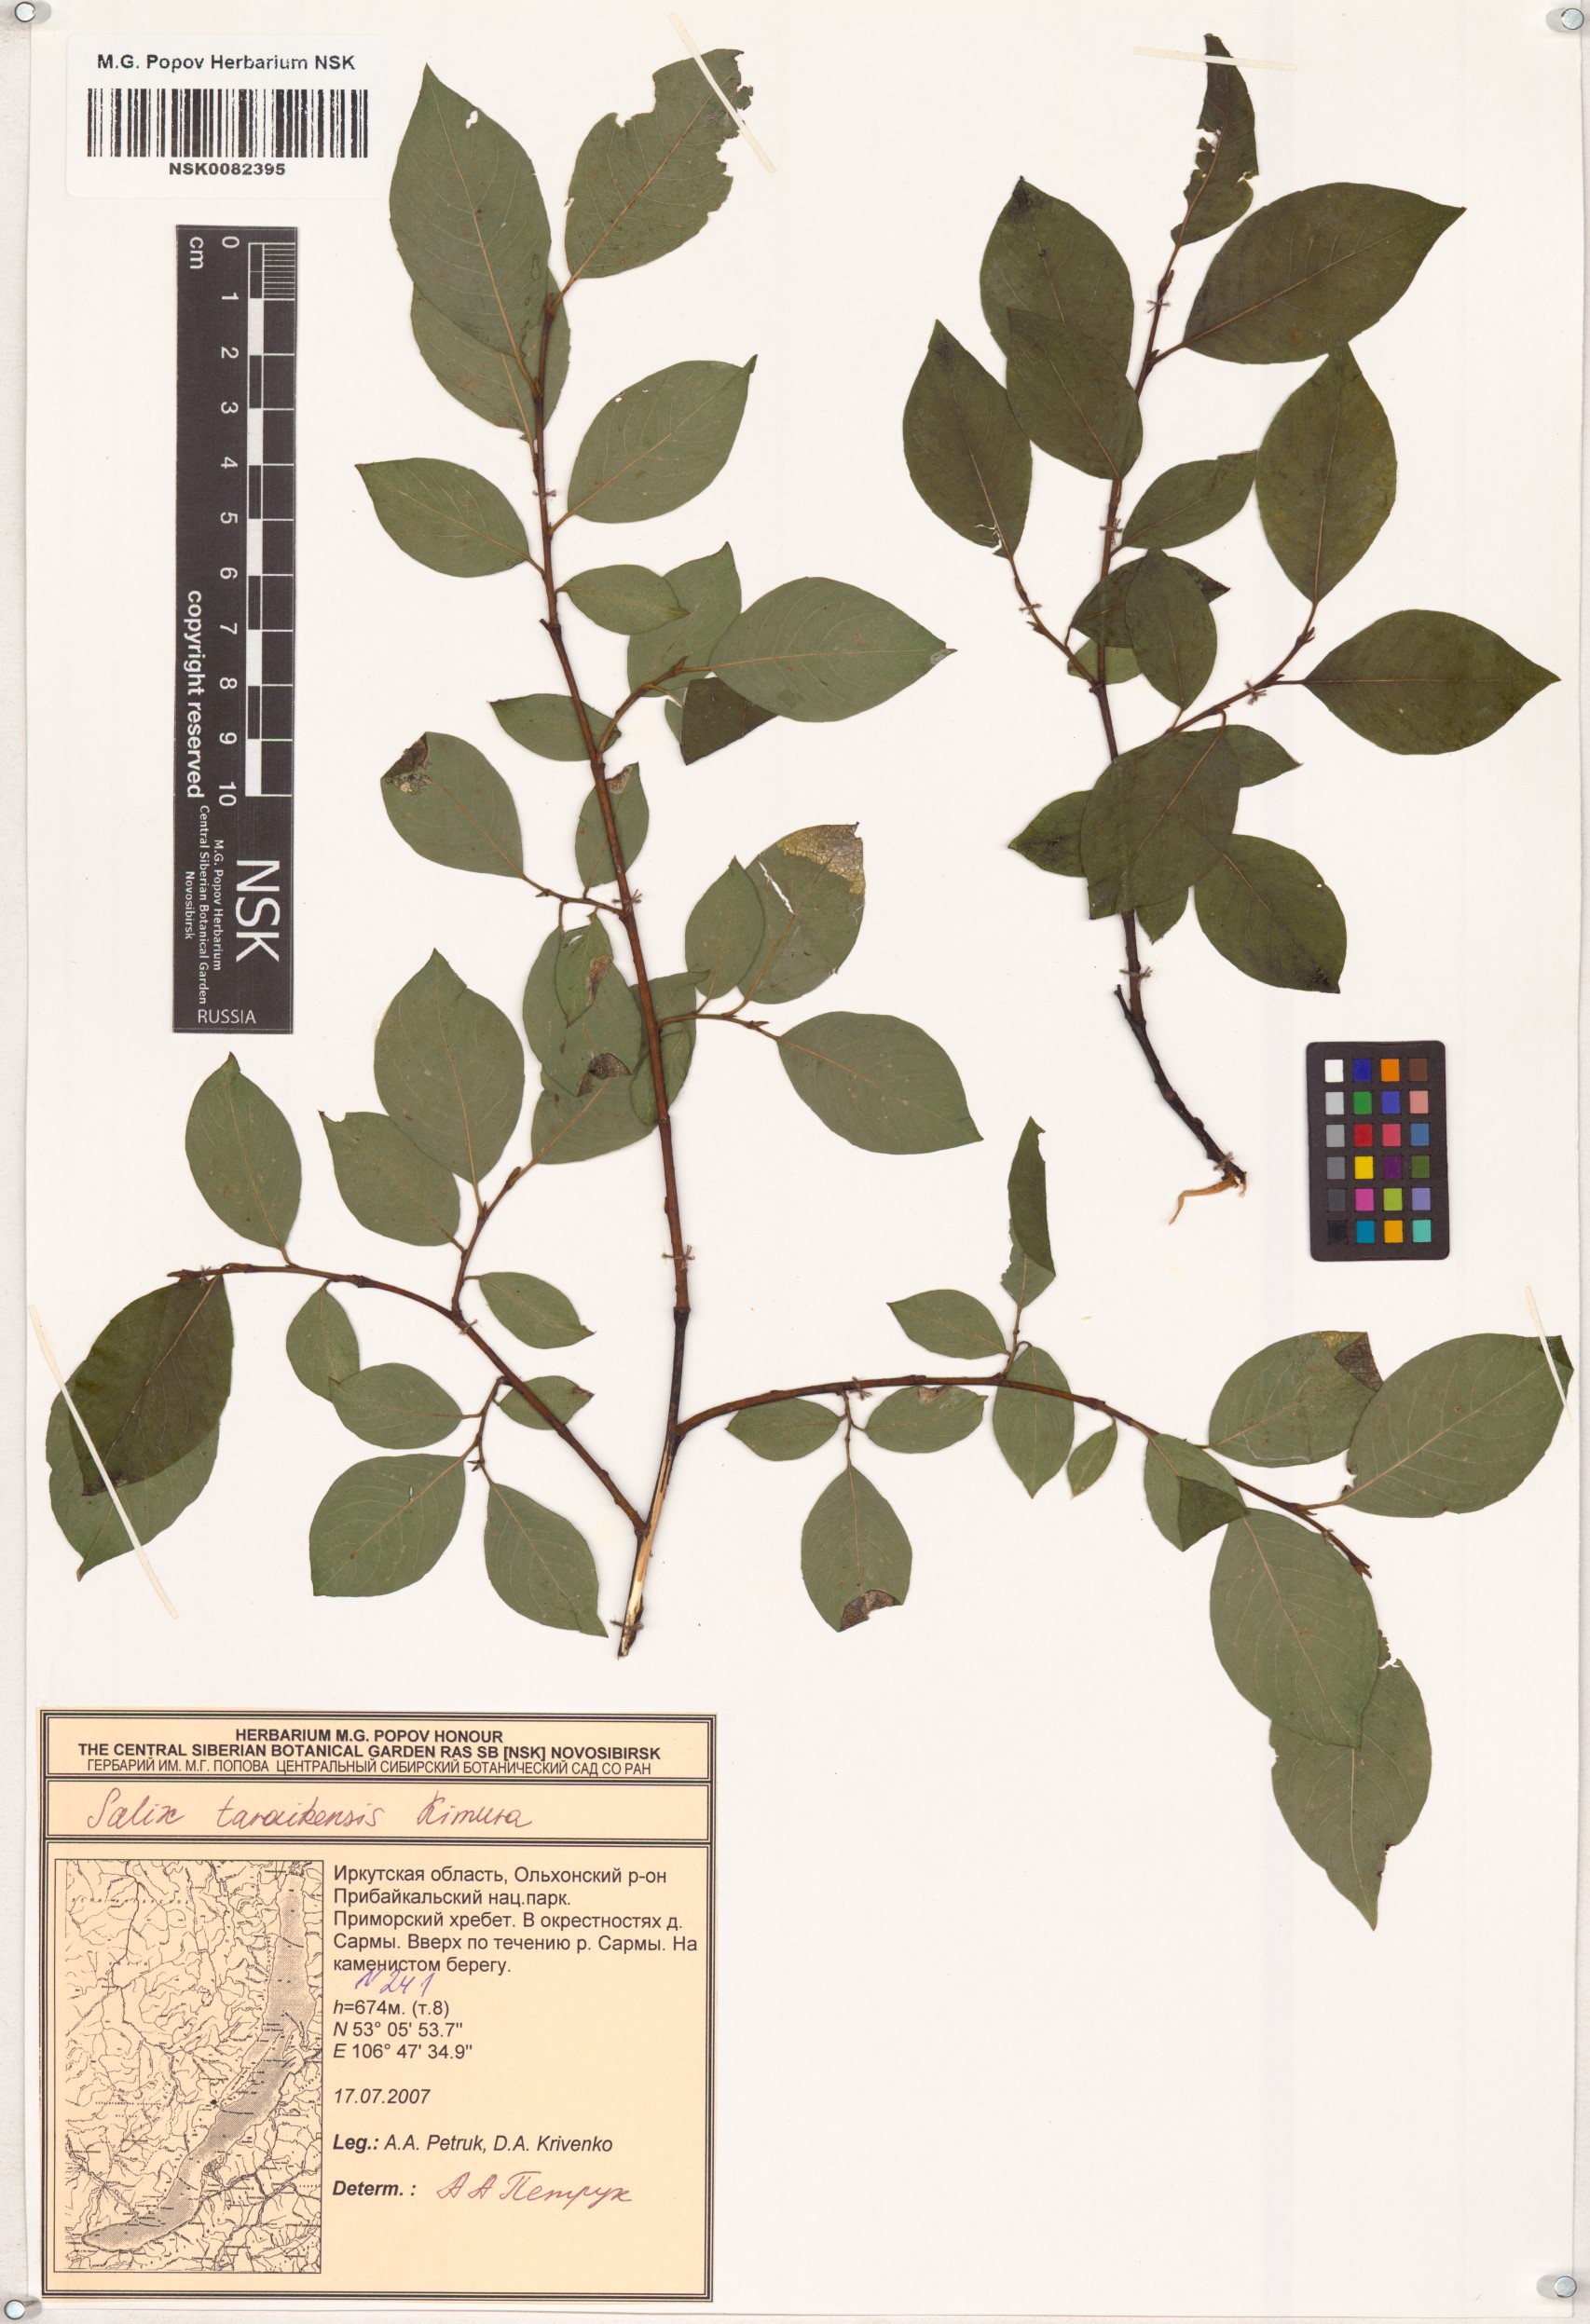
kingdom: Plantae
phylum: Tracheophyta
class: Magnoliopsida
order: Malpighiales
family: Salicaceae
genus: Salix
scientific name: Salix taraikensis
